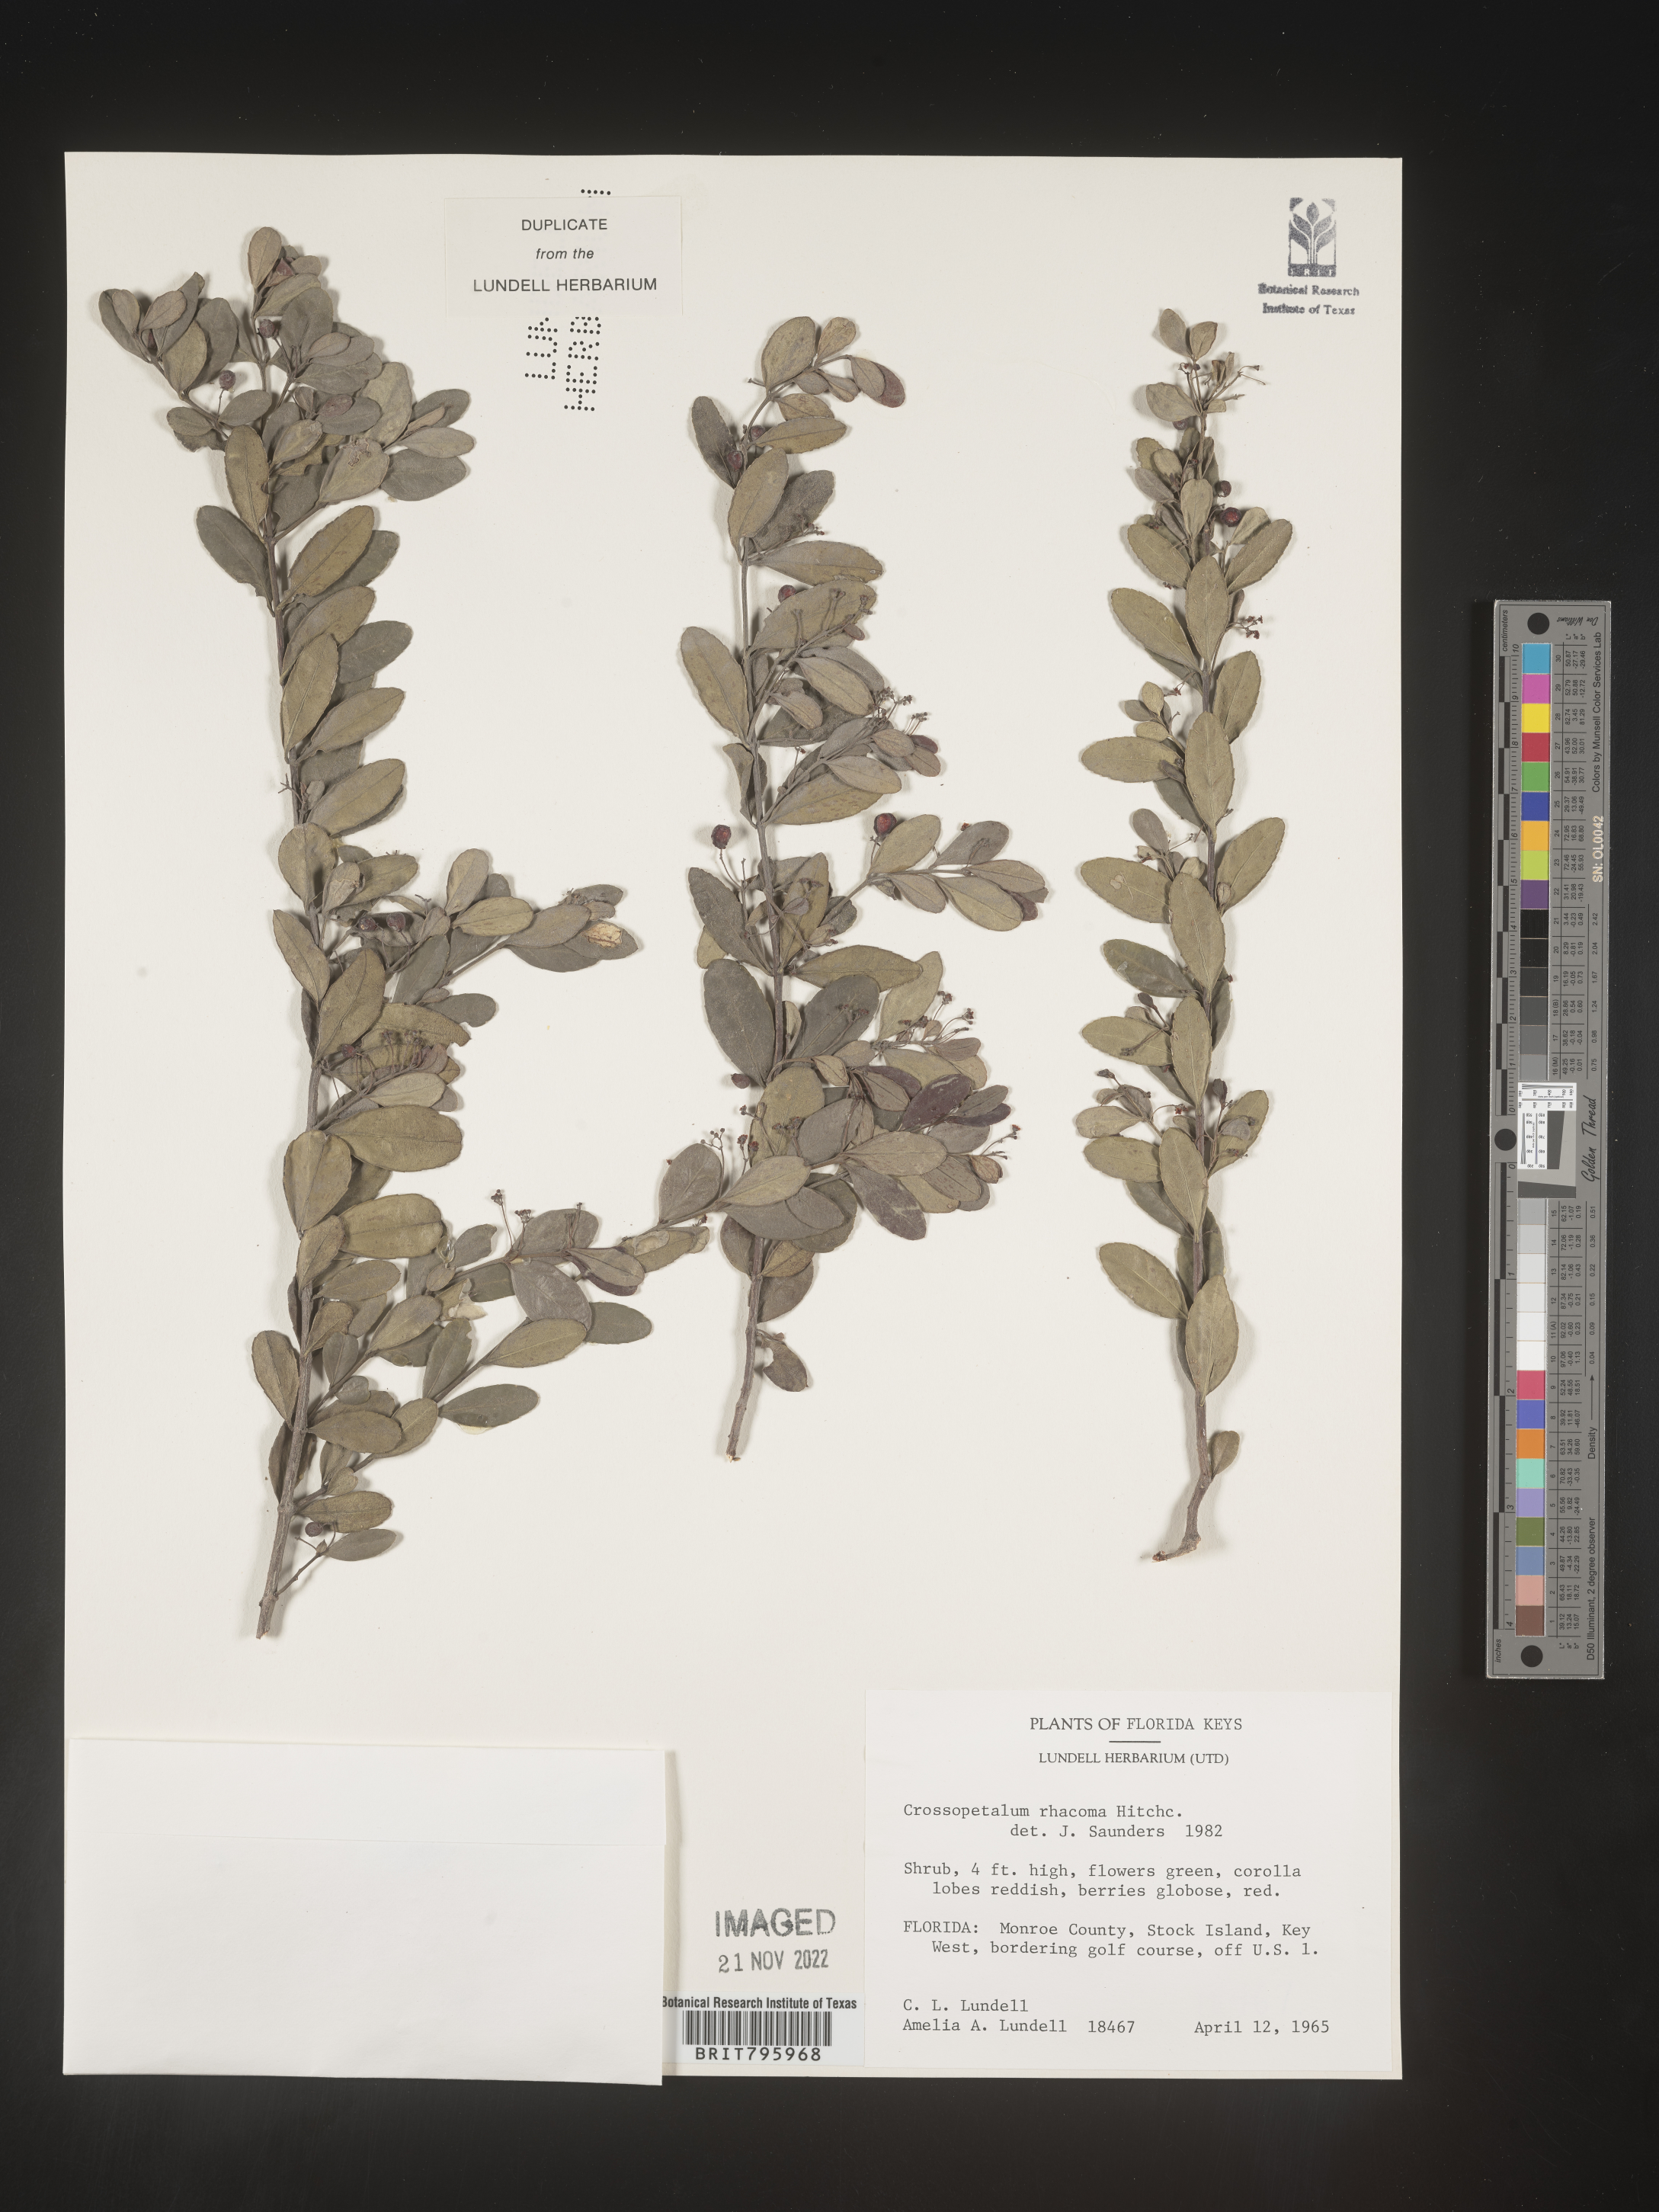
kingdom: Plantae
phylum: Tracheophyta
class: Magnoliopsida
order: Celastrales
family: Celastraceae
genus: Crossopetalum
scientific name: Crossopetalum
